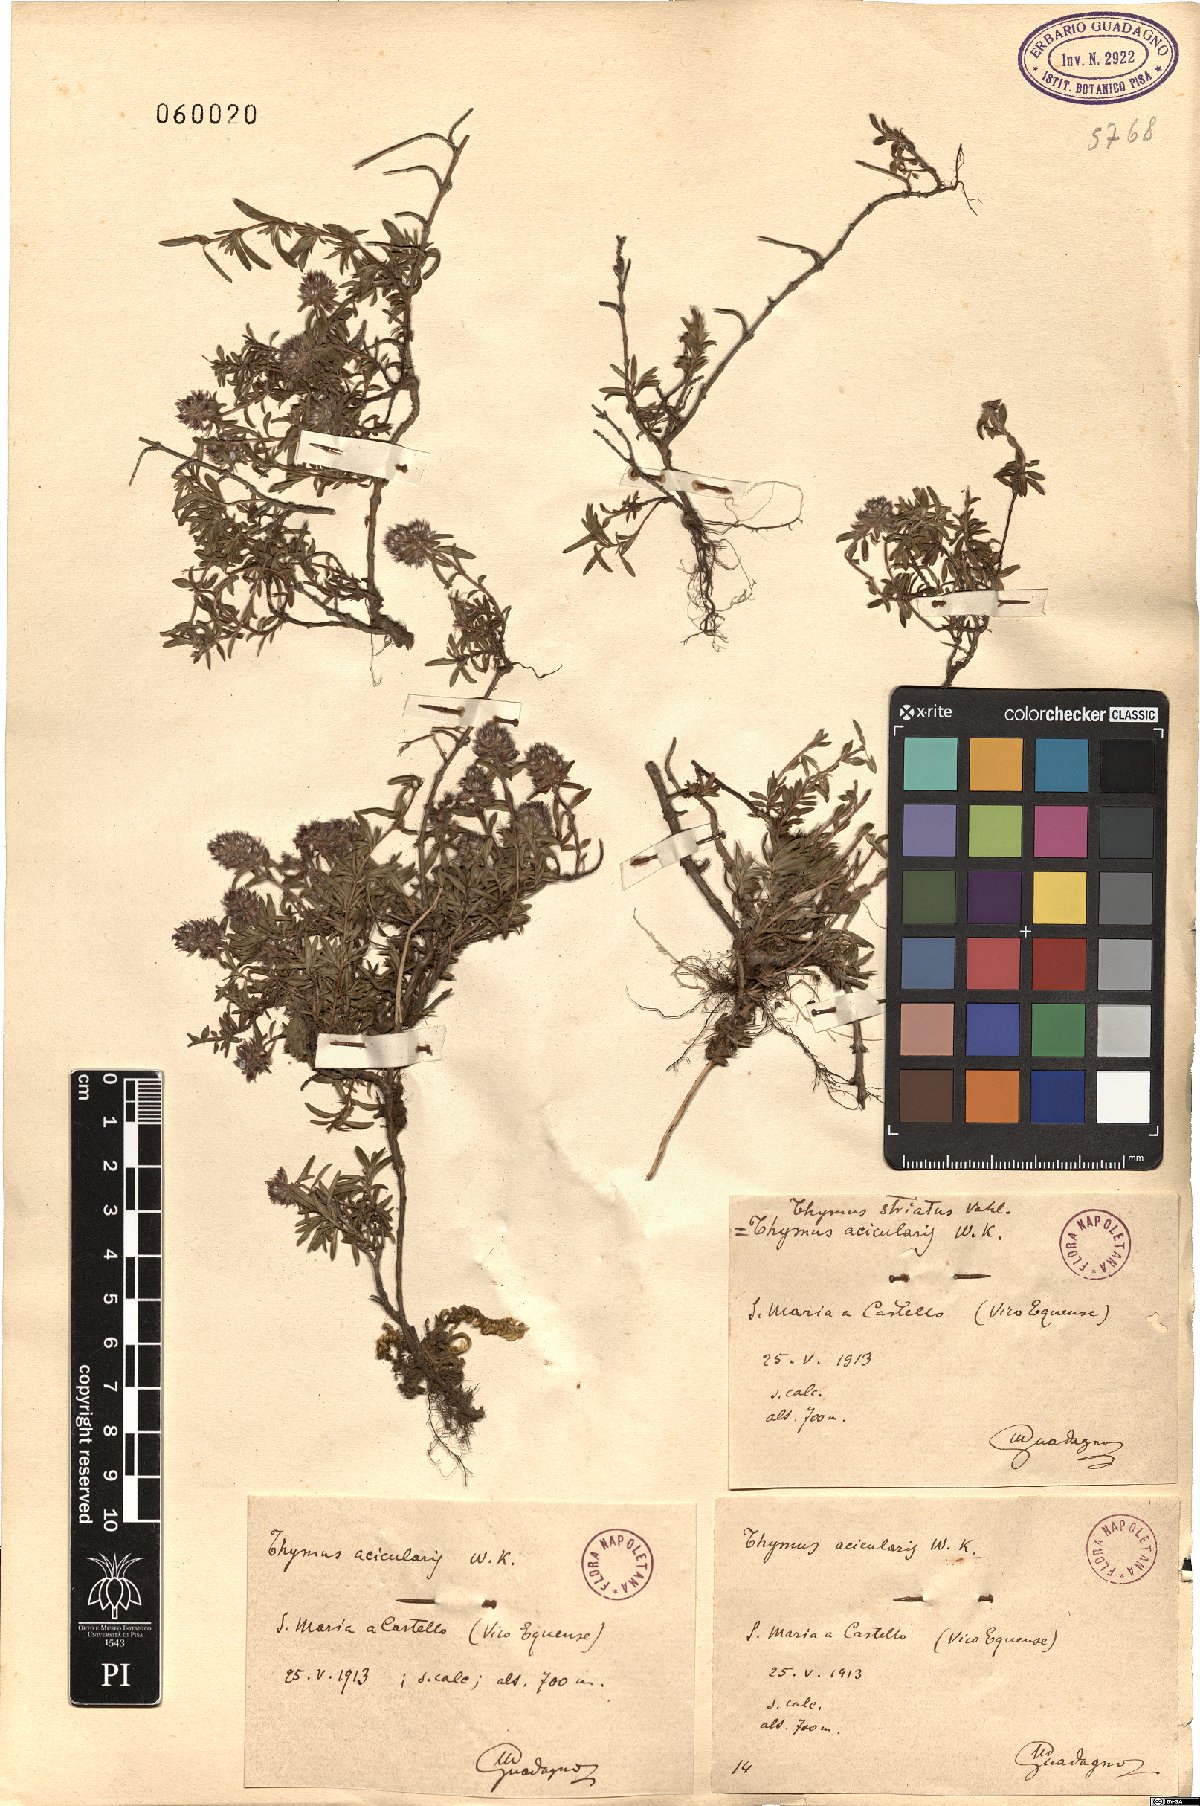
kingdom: Plantae
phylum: Tracheophyta
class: Magnoliopsida
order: Lamiales
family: Lamiaceae
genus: Thymus
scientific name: Thymus striatus
